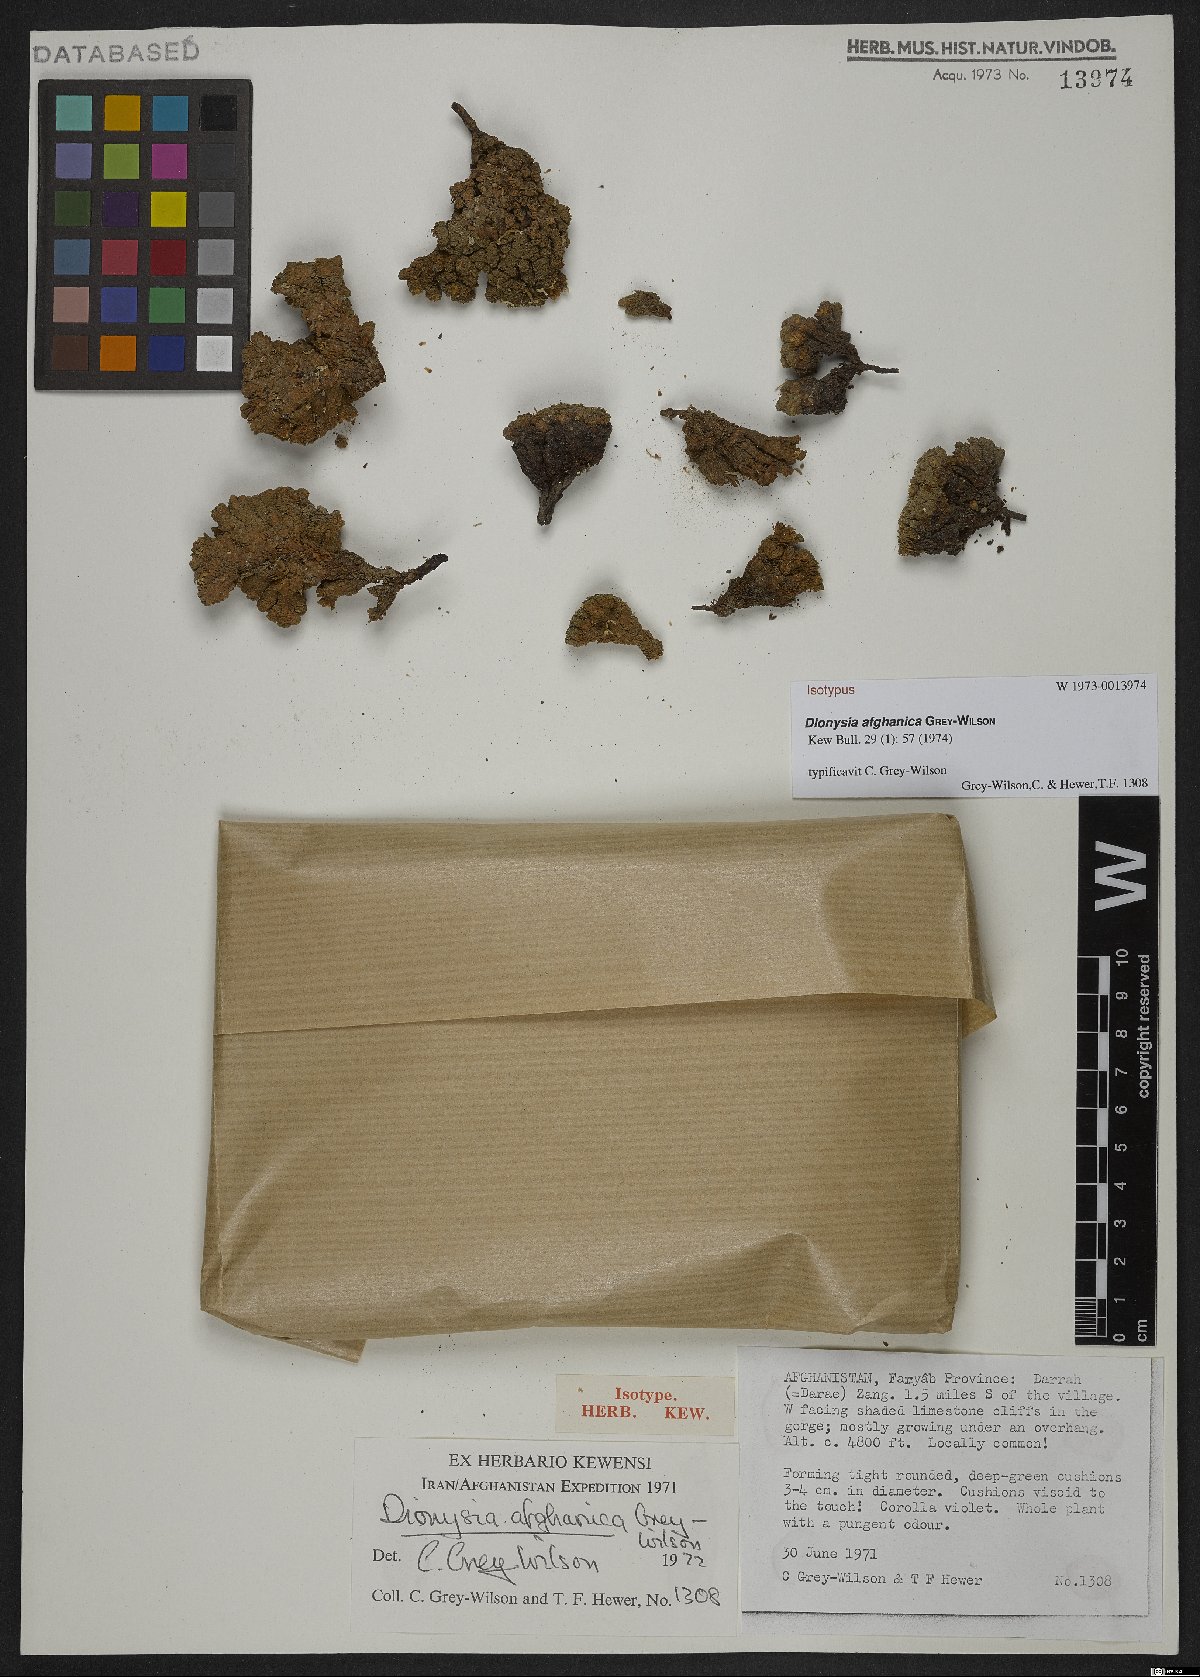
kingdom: Plantae
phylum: Tracheophyta
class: Magnoliopsida
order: Ericales
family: Primulaceae
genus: Dionysia
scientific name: Dionysia afghanica
